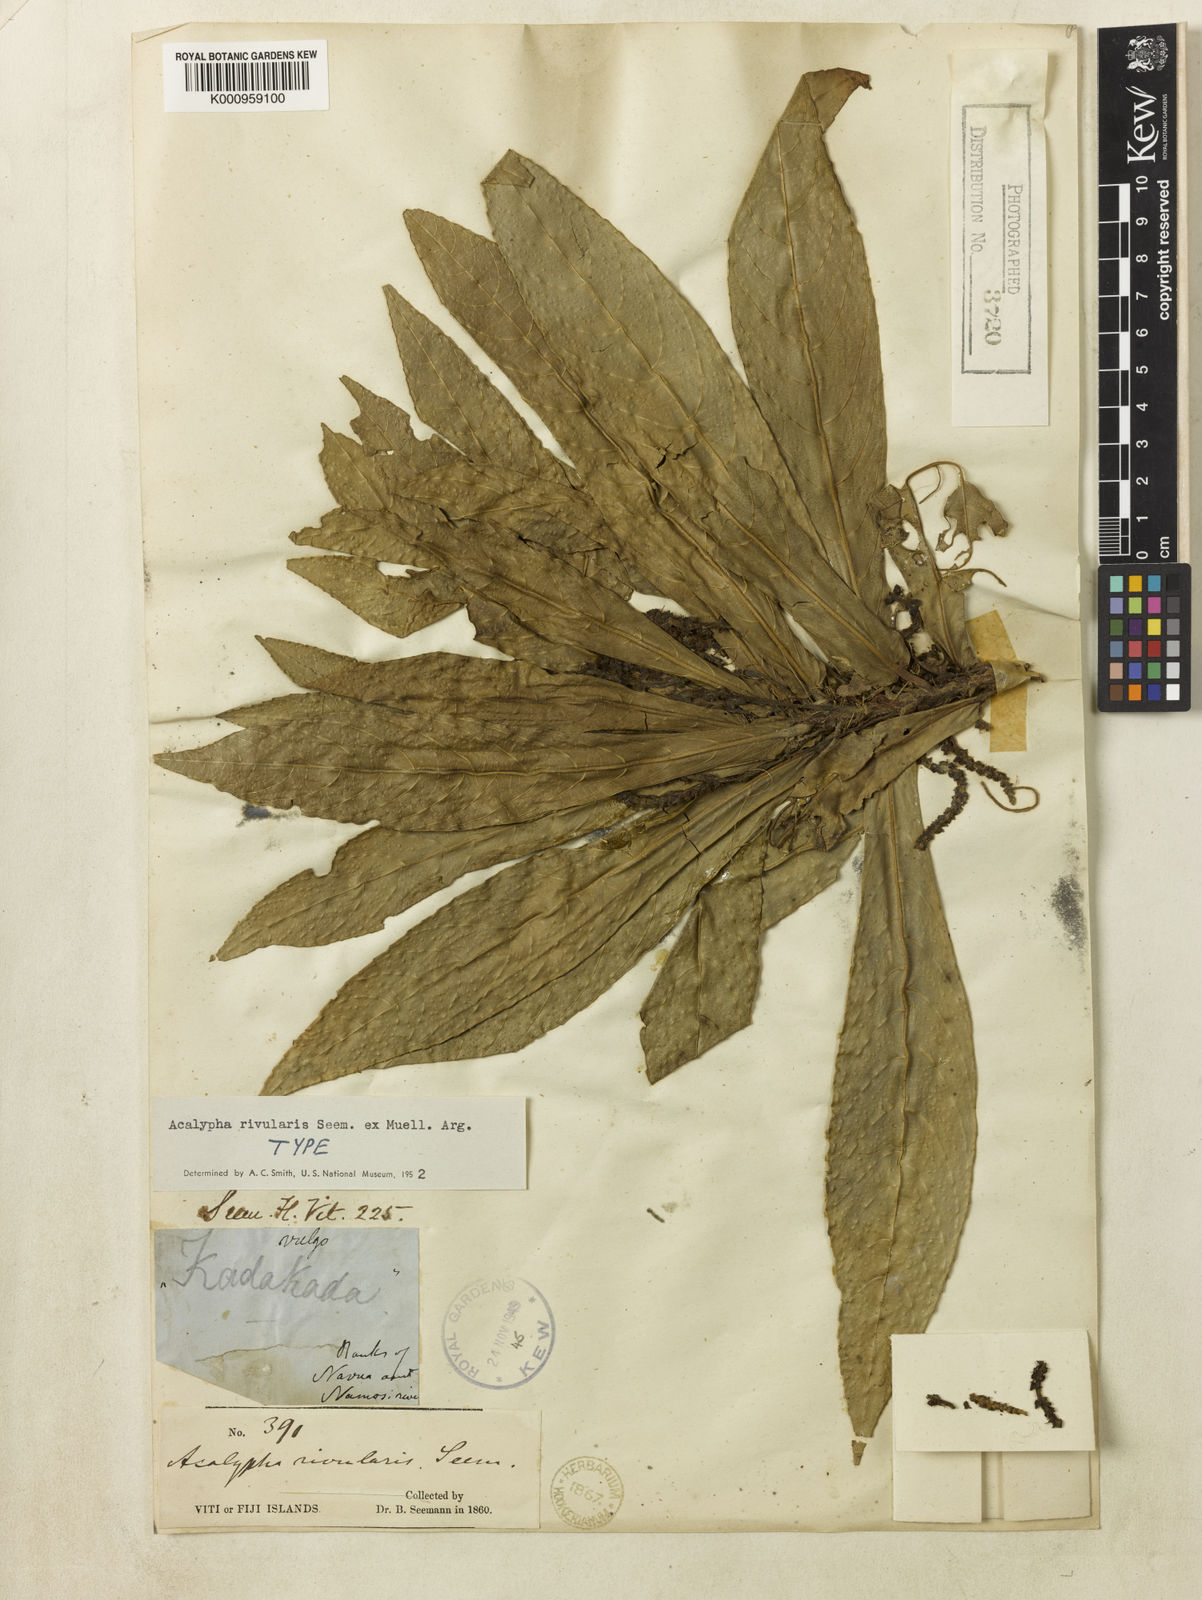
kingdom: Plantae
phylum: Tracheophyta
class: Magnoliopsida
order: Malpighiales
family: Euphorbiaceae
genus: Acalypha
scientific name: Acalypha rivularis
